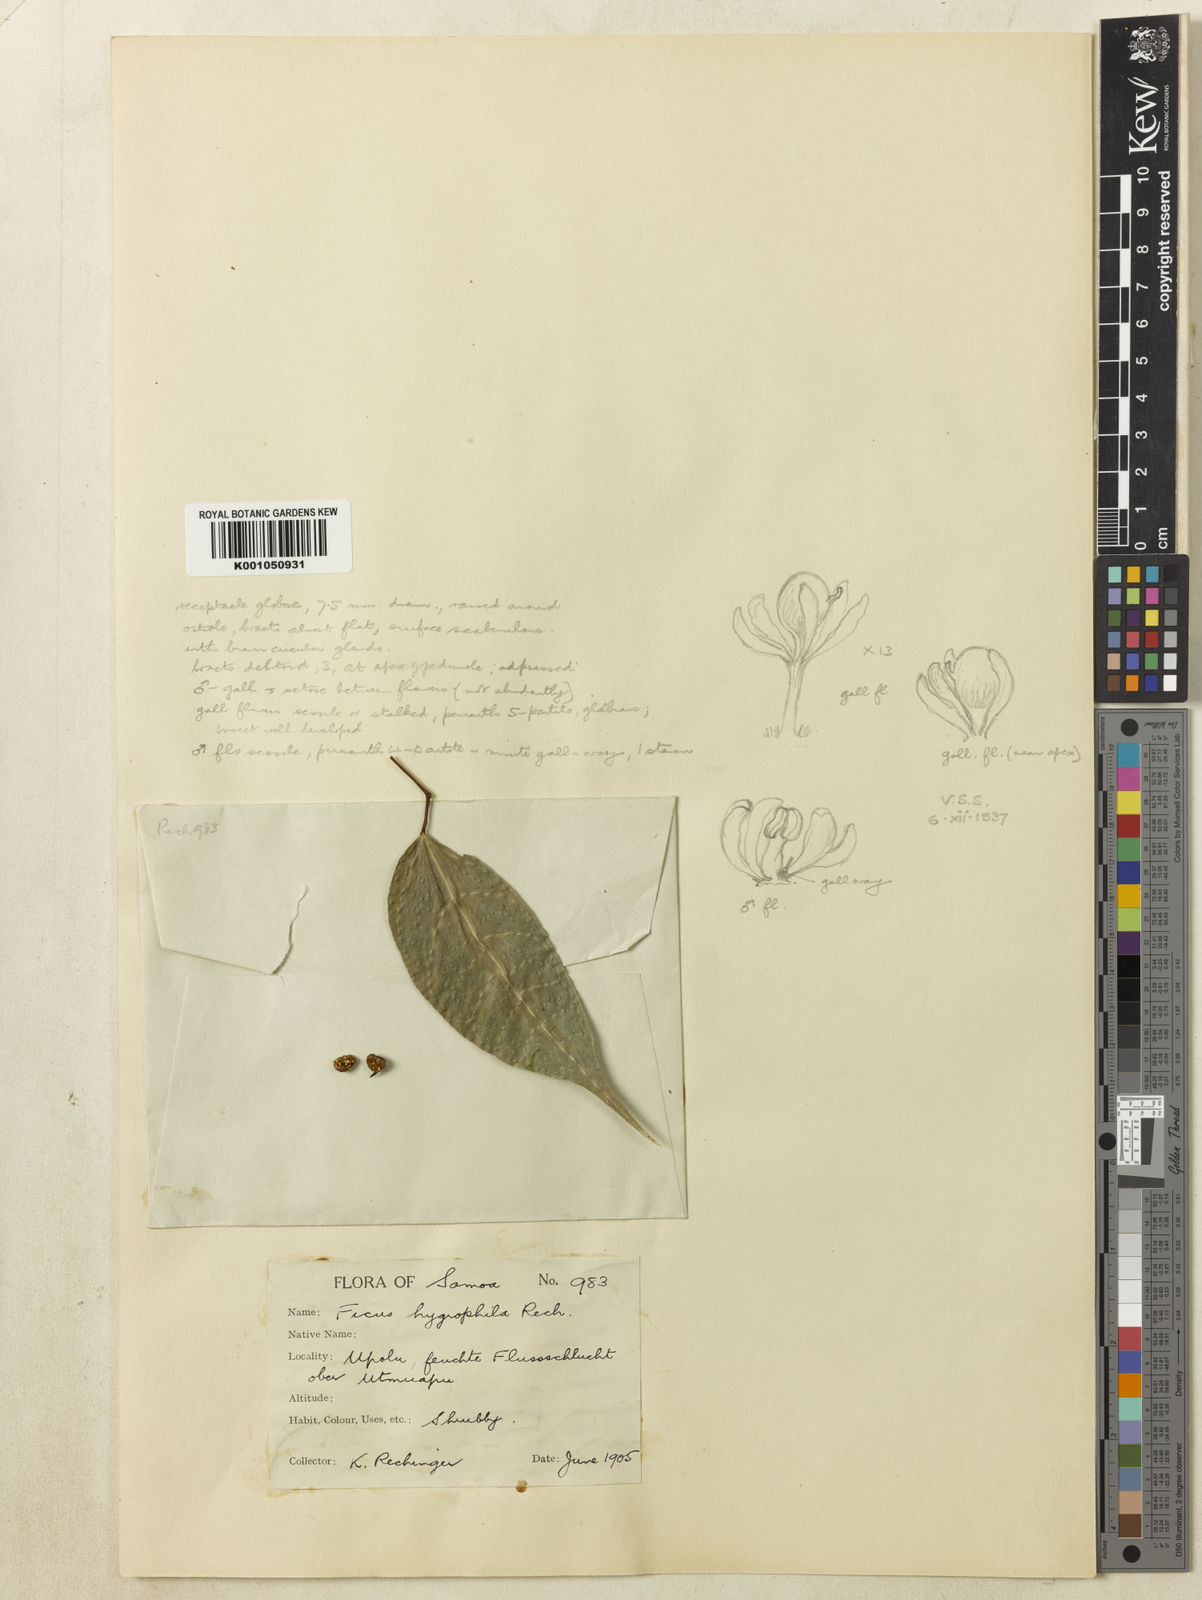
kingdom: Plantae
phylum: Tracheophyta
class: Magnoliopsida
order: Rosales
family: Moraceae
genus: Ficus
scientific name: Ficus godeffroyi
